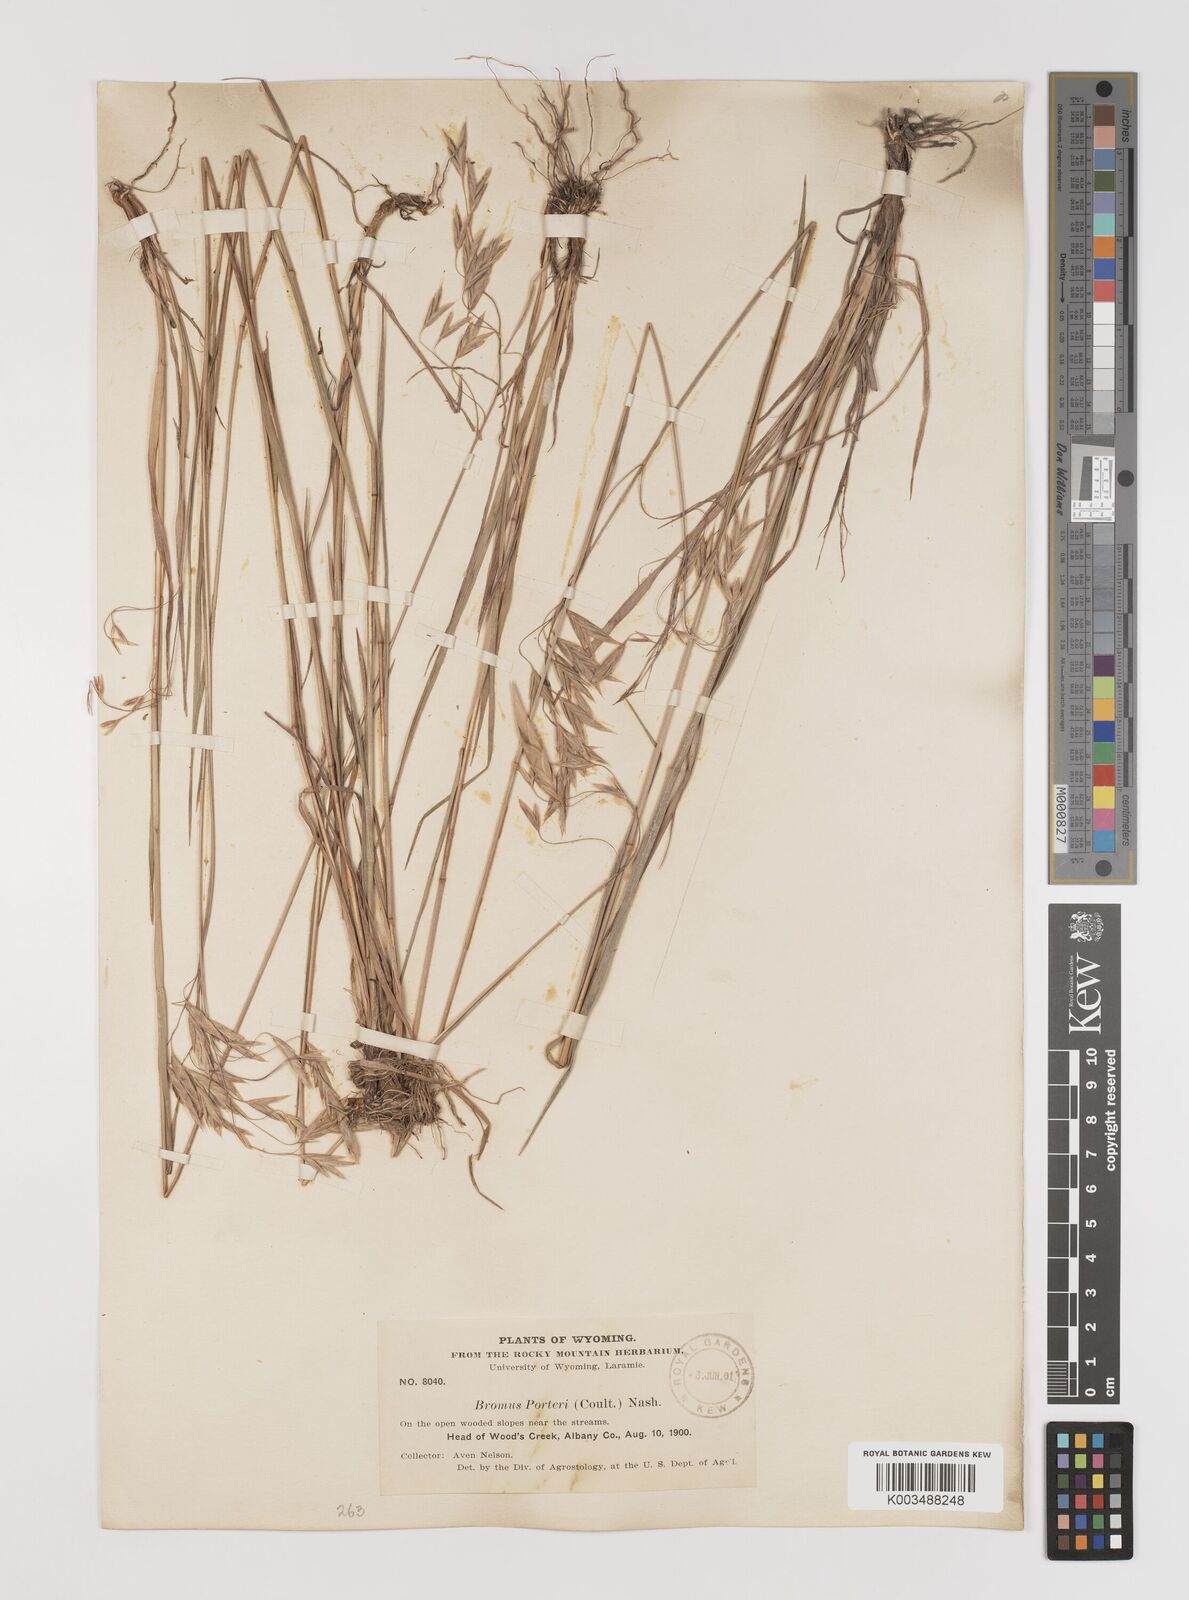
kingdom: Plantae
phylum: Tracheophyta
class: Liliopsida
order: Poales
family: Poaceae
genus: Bromus
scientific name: Bromus porteri
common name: Nodding brome
